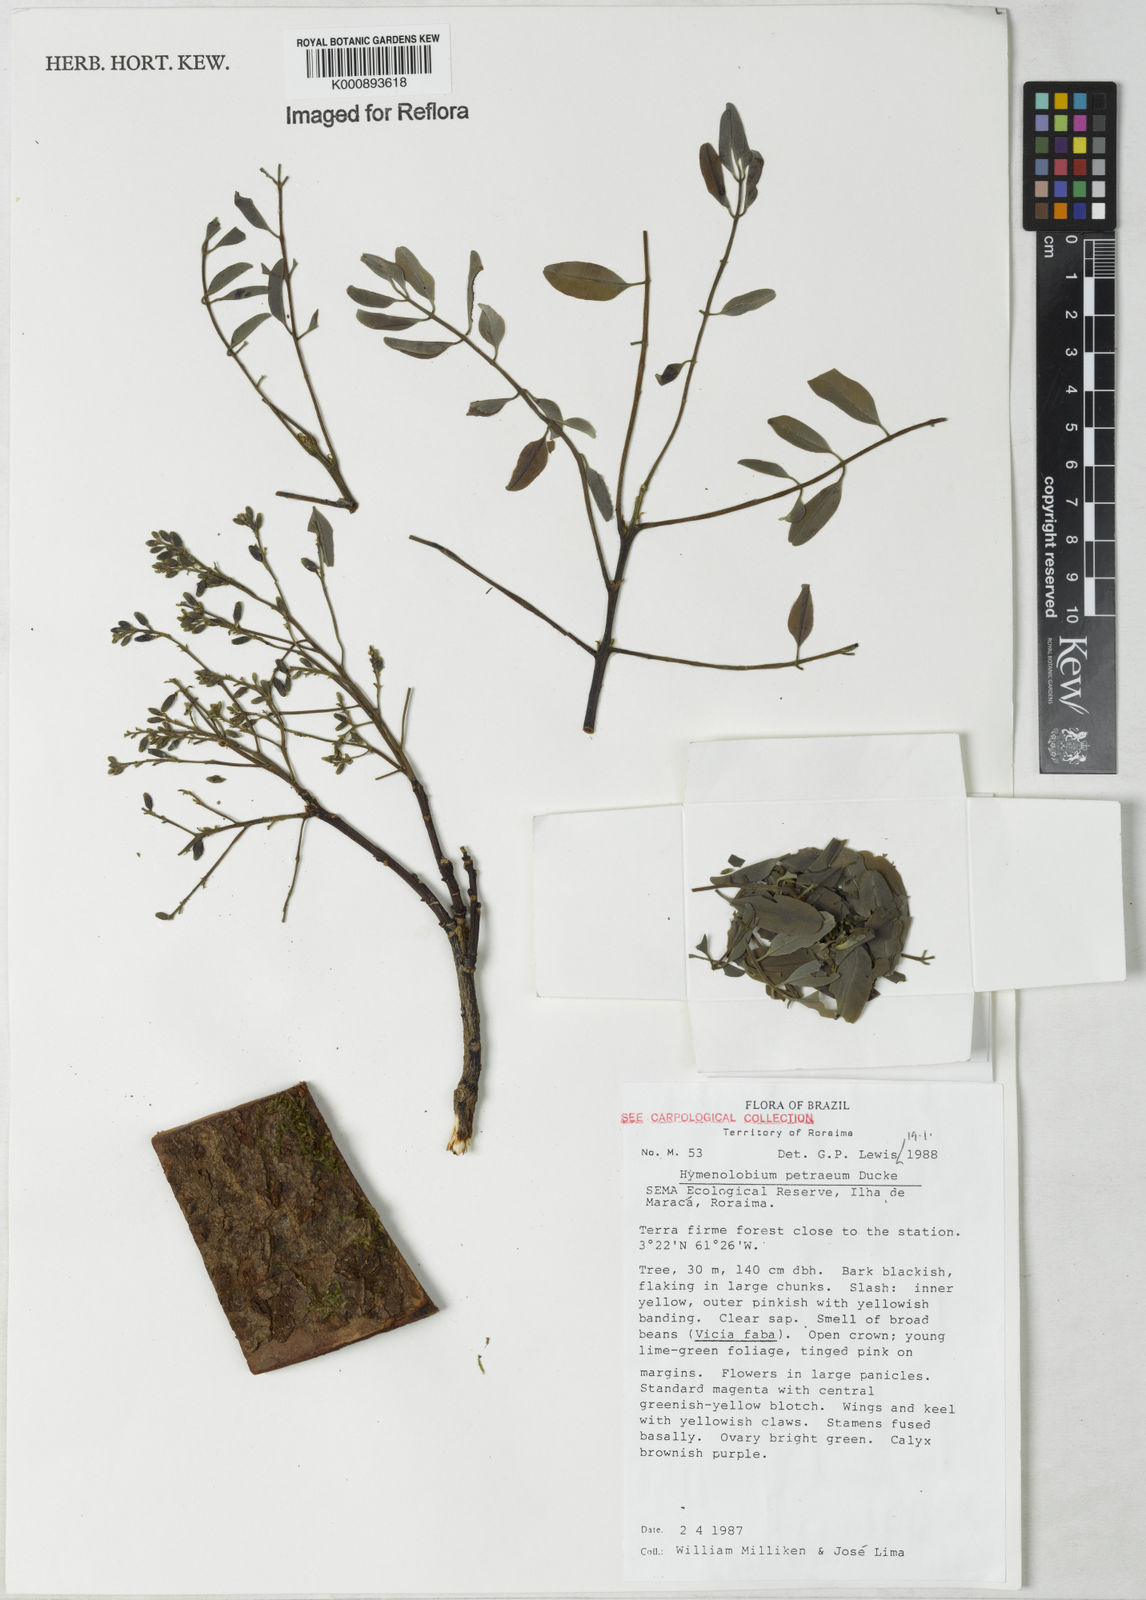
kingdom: Plantae
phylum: Tracheophyta
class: Magnoliopsida
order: Fabales
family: Fabaceae
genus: Hymenolobium
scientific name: Hymenolobium petraeum
